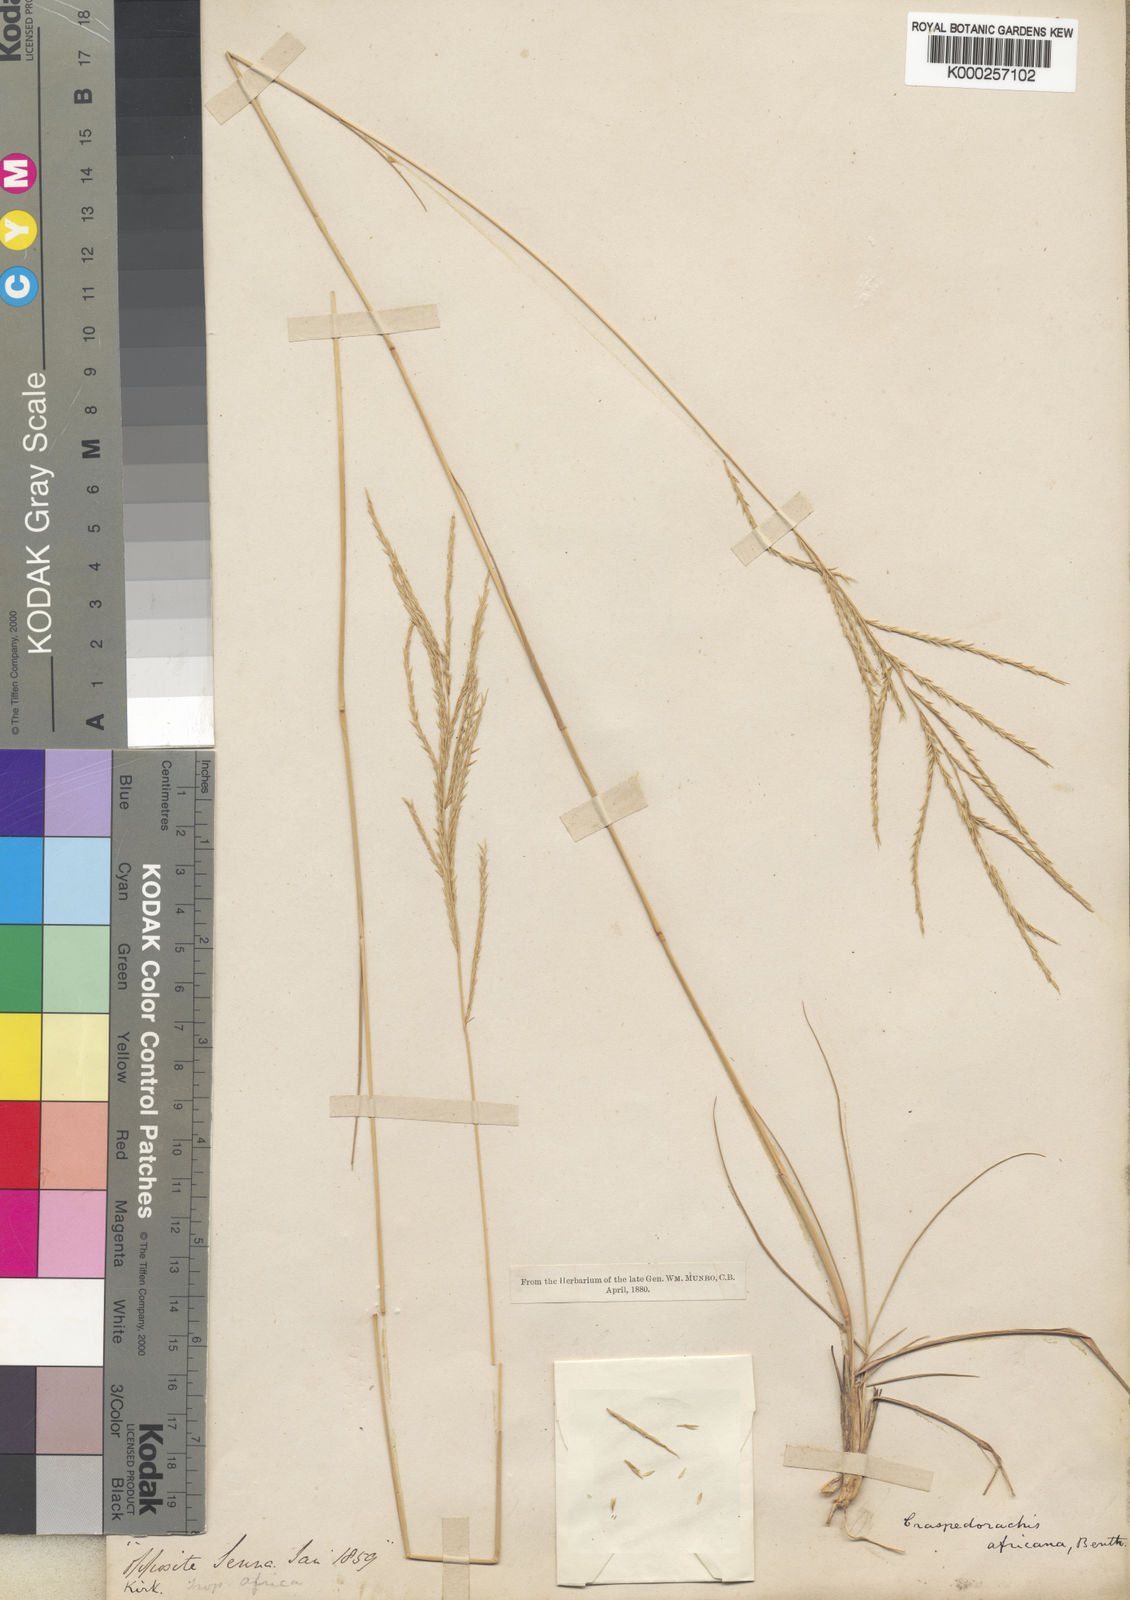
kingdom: Plantae
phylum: Tracheophyta
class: Liliopsida
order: Poales
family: Poaceae
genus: Craspedorhachis
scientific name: Craspedorhachis africana
